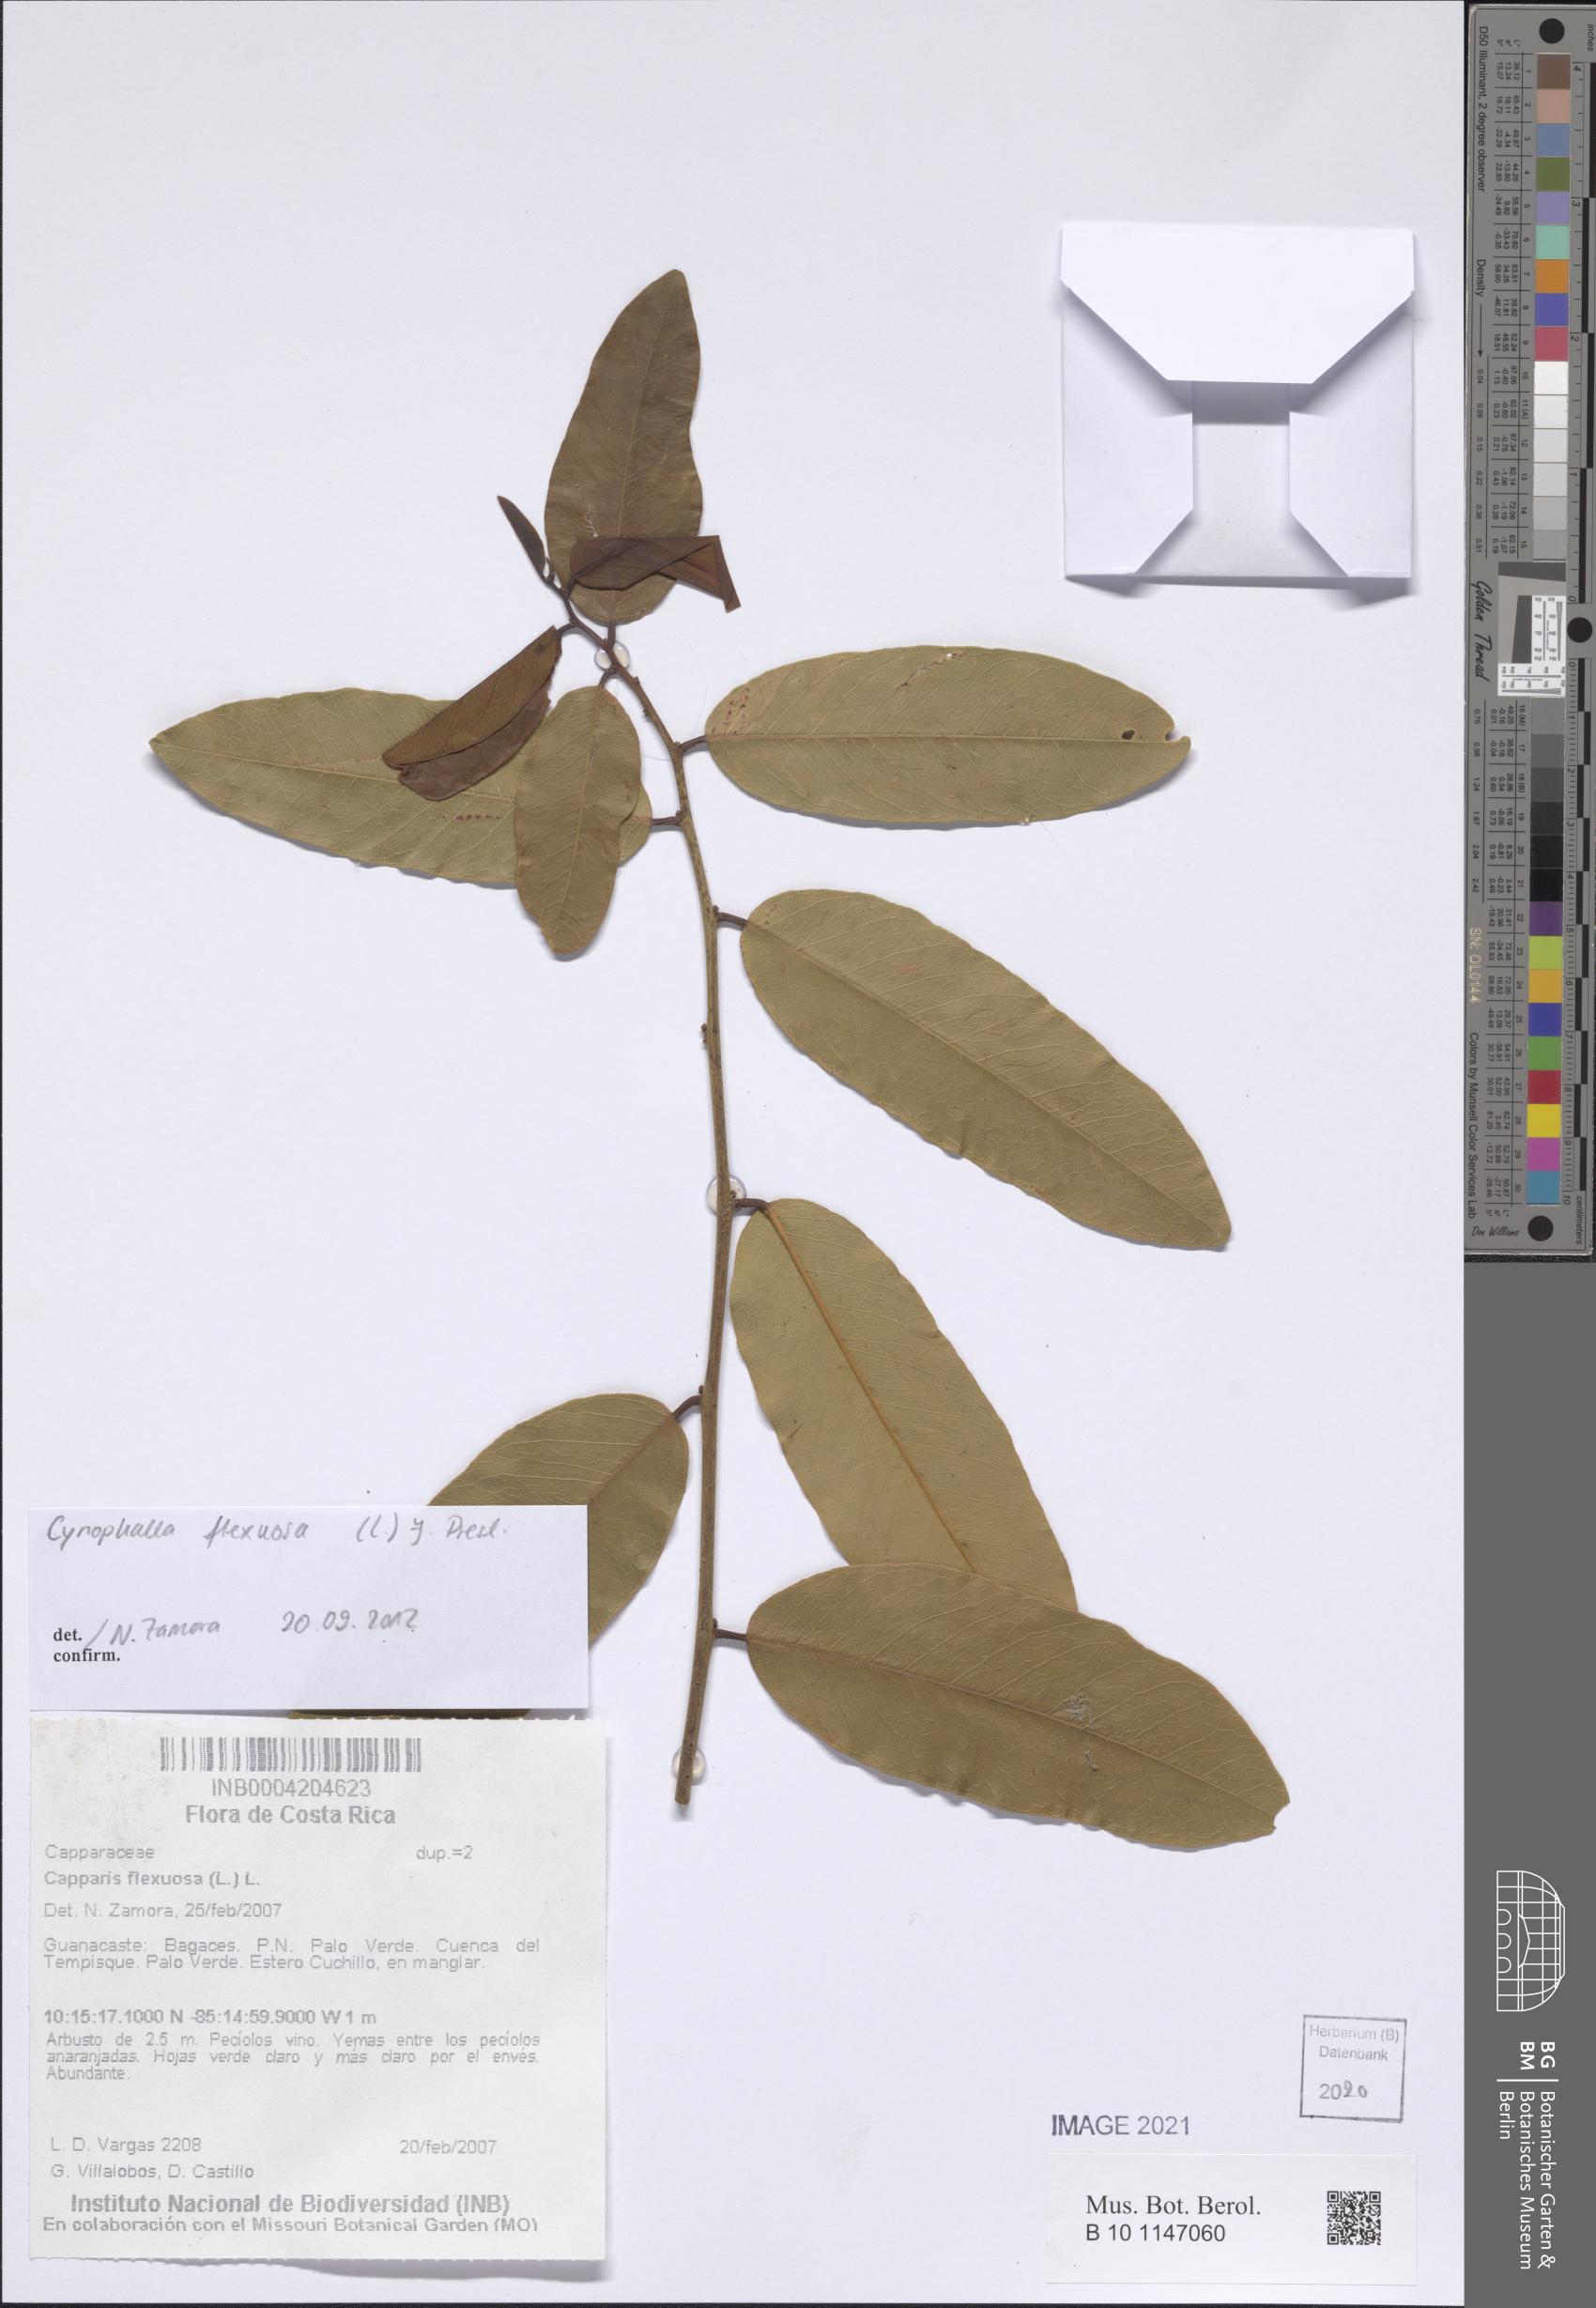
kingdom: Plantae
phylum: Tracheophyta
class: Magnoliopsida
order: Brassicales
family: Capparaceae
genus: Cynophalla
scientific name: Cynophalla flexuosa
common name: Capertree
